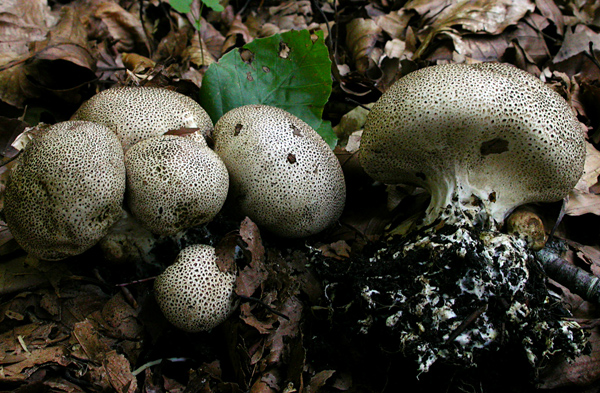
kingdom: Fungi
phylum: Basidiomycota
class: Agaricomycetes
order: Boletales
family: Sclerodermataceae
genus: Scleroderma
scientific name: Scleroderma verrucosum
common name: stilket bruskbold
